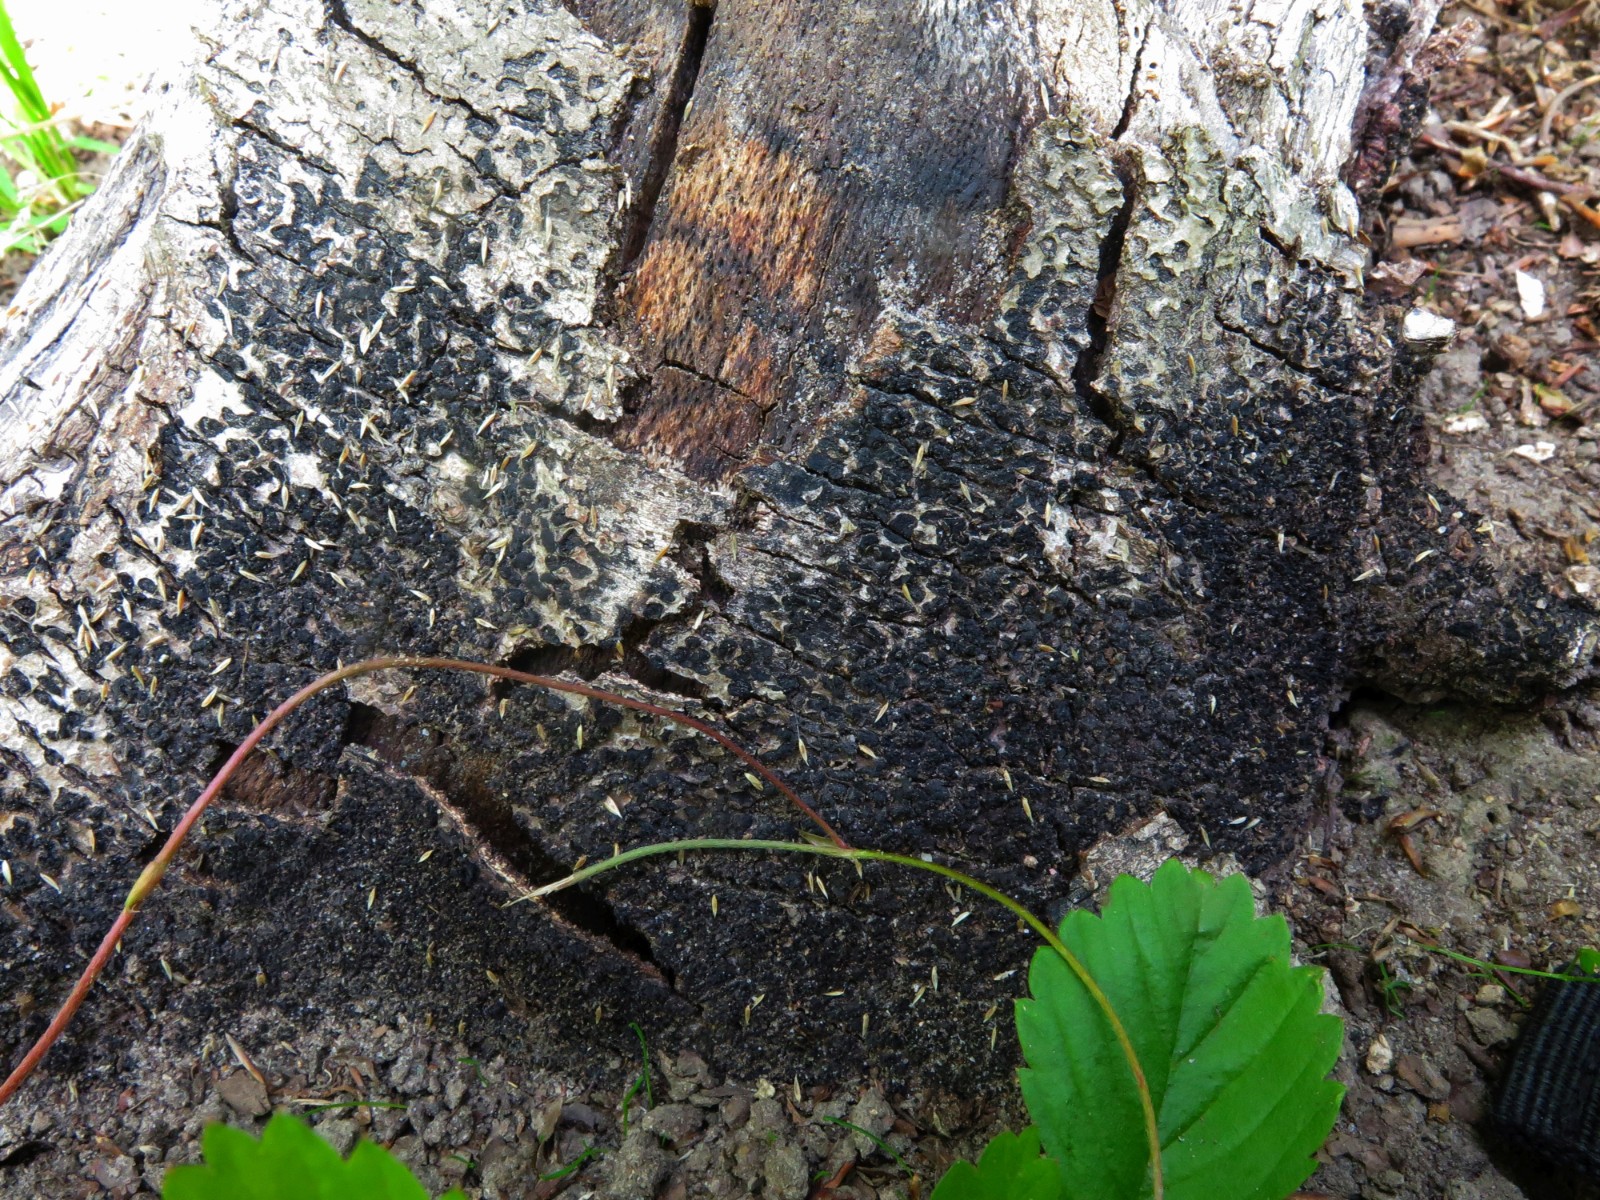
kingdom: Fungi
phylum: Ascomycota
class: Sordariomycetes
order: Xylariales
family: Melogrammataceae
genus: Melogramma
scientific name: Melogramma spiniferum
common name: bøgefod-kulhals
